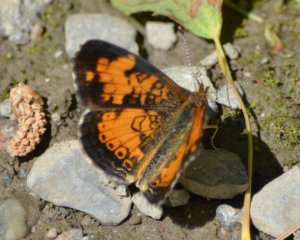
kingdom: Animalia
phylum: Arthropoda
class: Insecta
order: Lepidoptera
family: Nymphalidae
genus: Phyciodes
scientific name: Phyciodes tharos
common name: Northern Crescent
